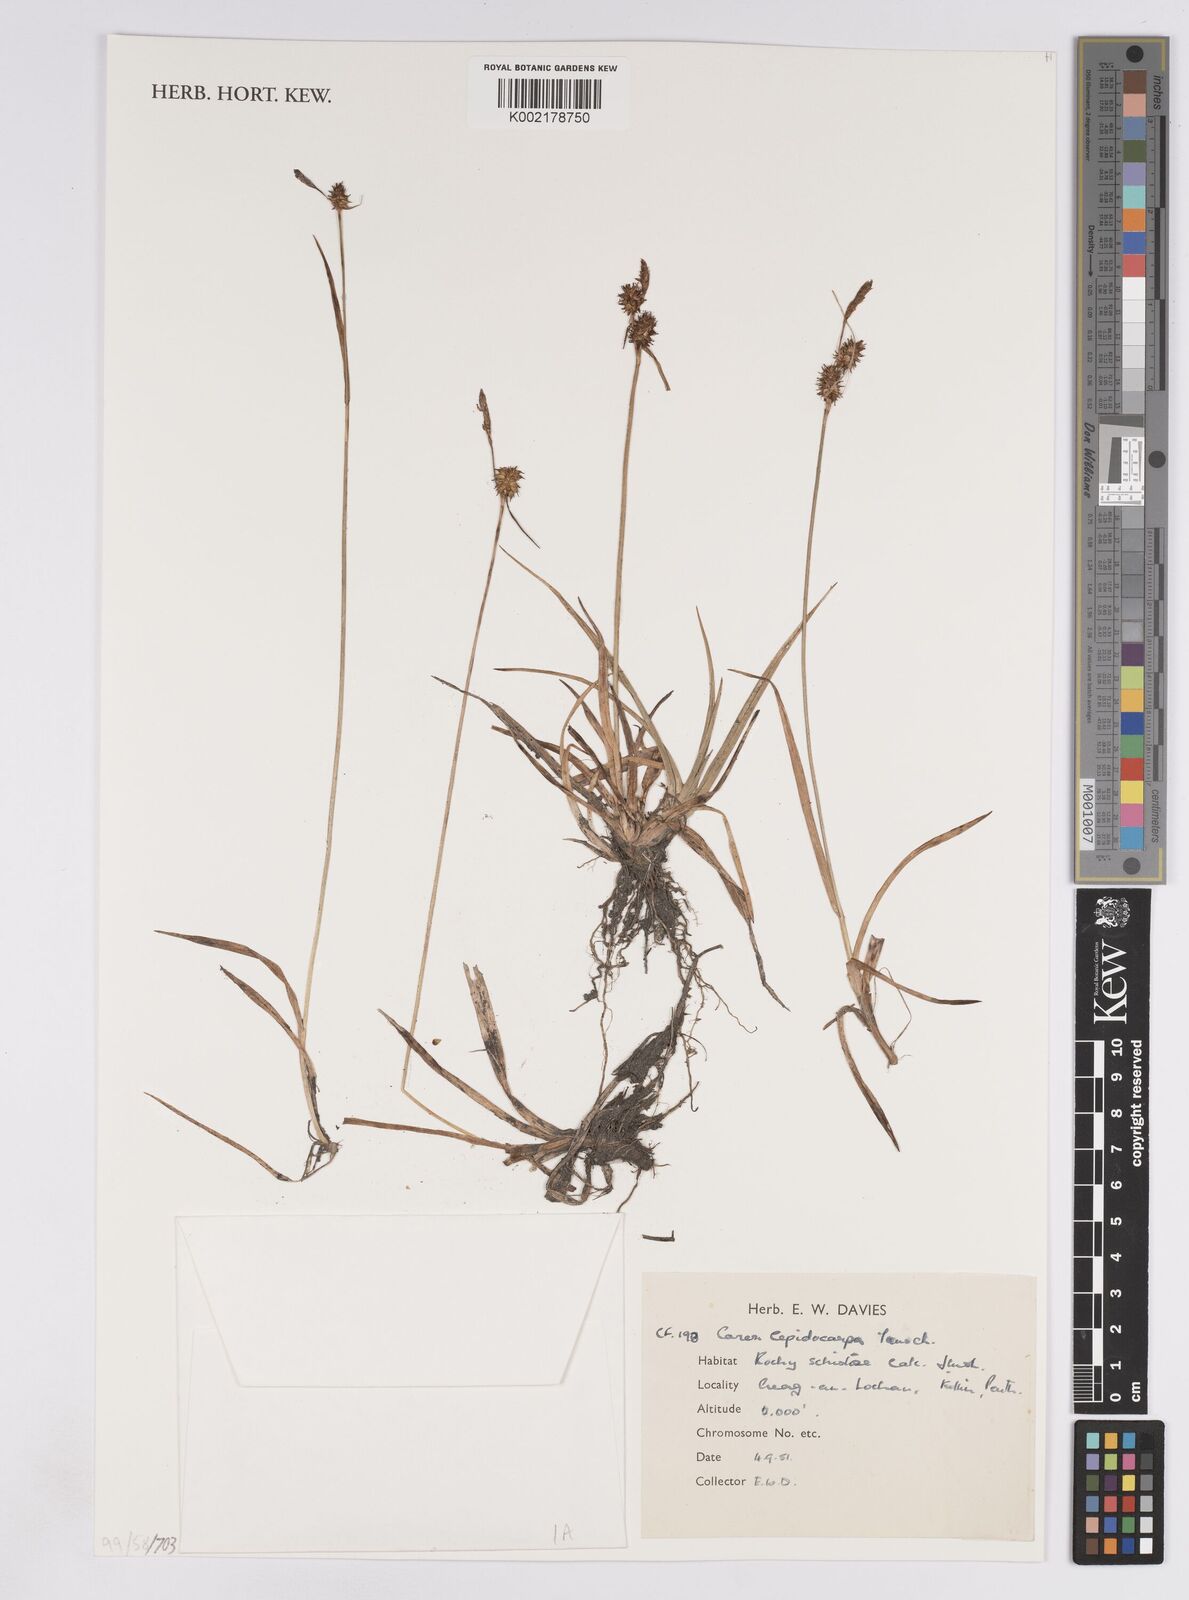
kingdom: Plantae
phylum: Tracheophyta
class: Liliopsida
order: Poales
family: Cyperaceae
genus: Carex
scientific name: Carex lepidocarpa
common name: Long-stalked yellow-sedge
